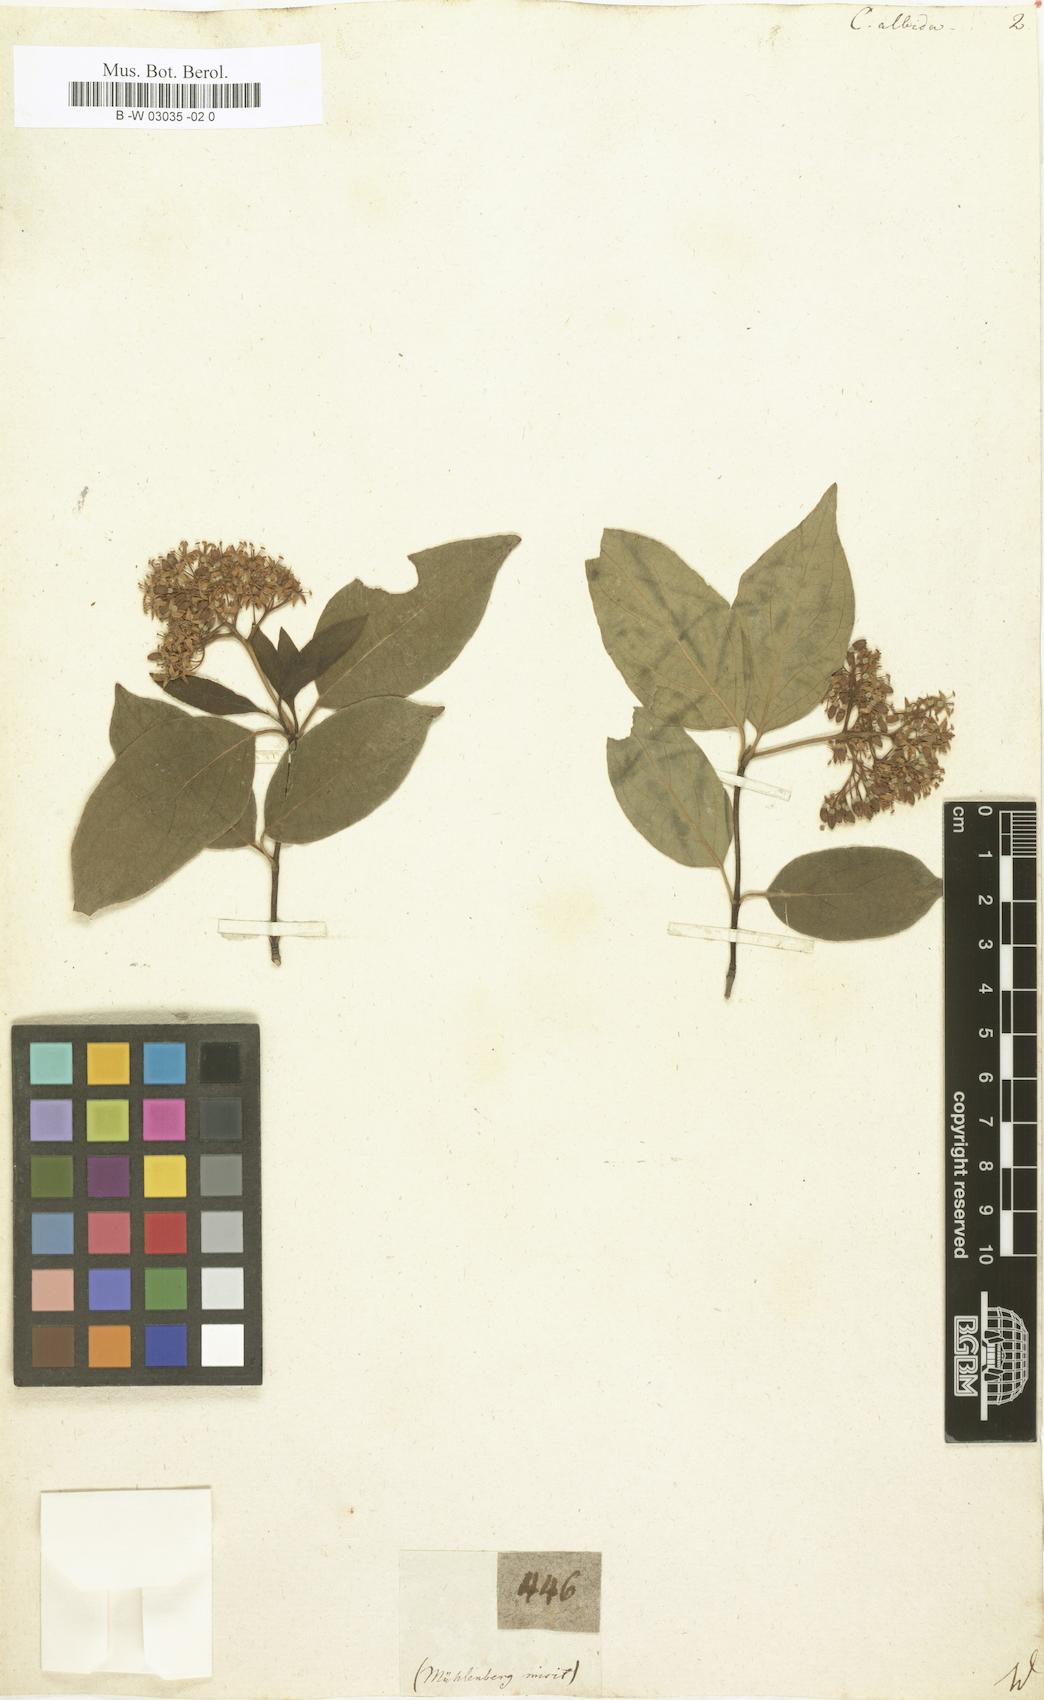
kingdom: Plantae
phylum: Tracheophyta
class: Magnoliopsida
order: Cornales
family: Cornaceae
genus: Cornus
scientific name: Cornus racemosa
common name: Panicled dogwood
